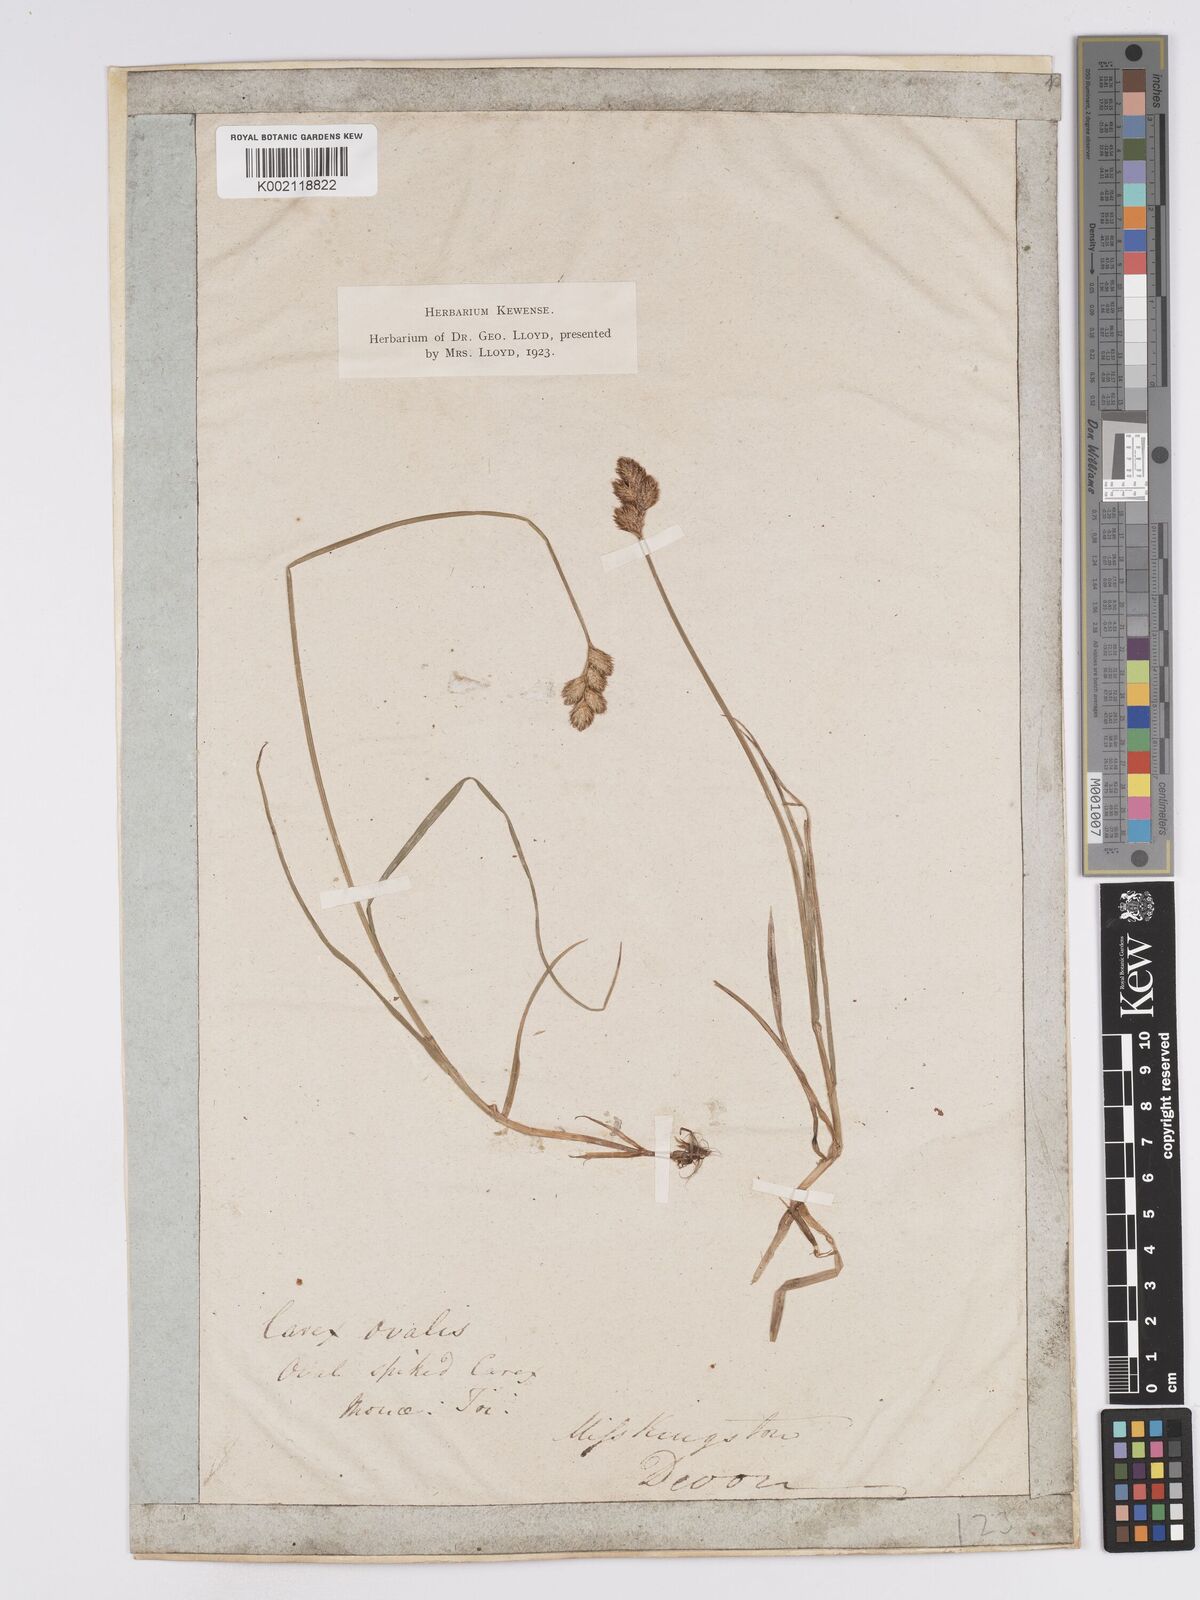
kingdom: Plantae
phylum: Tracheophyta
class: Liliopsida
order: Poales
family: Cyperaceae
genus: Carex
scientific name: Carex leporina
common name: Oval sedge
